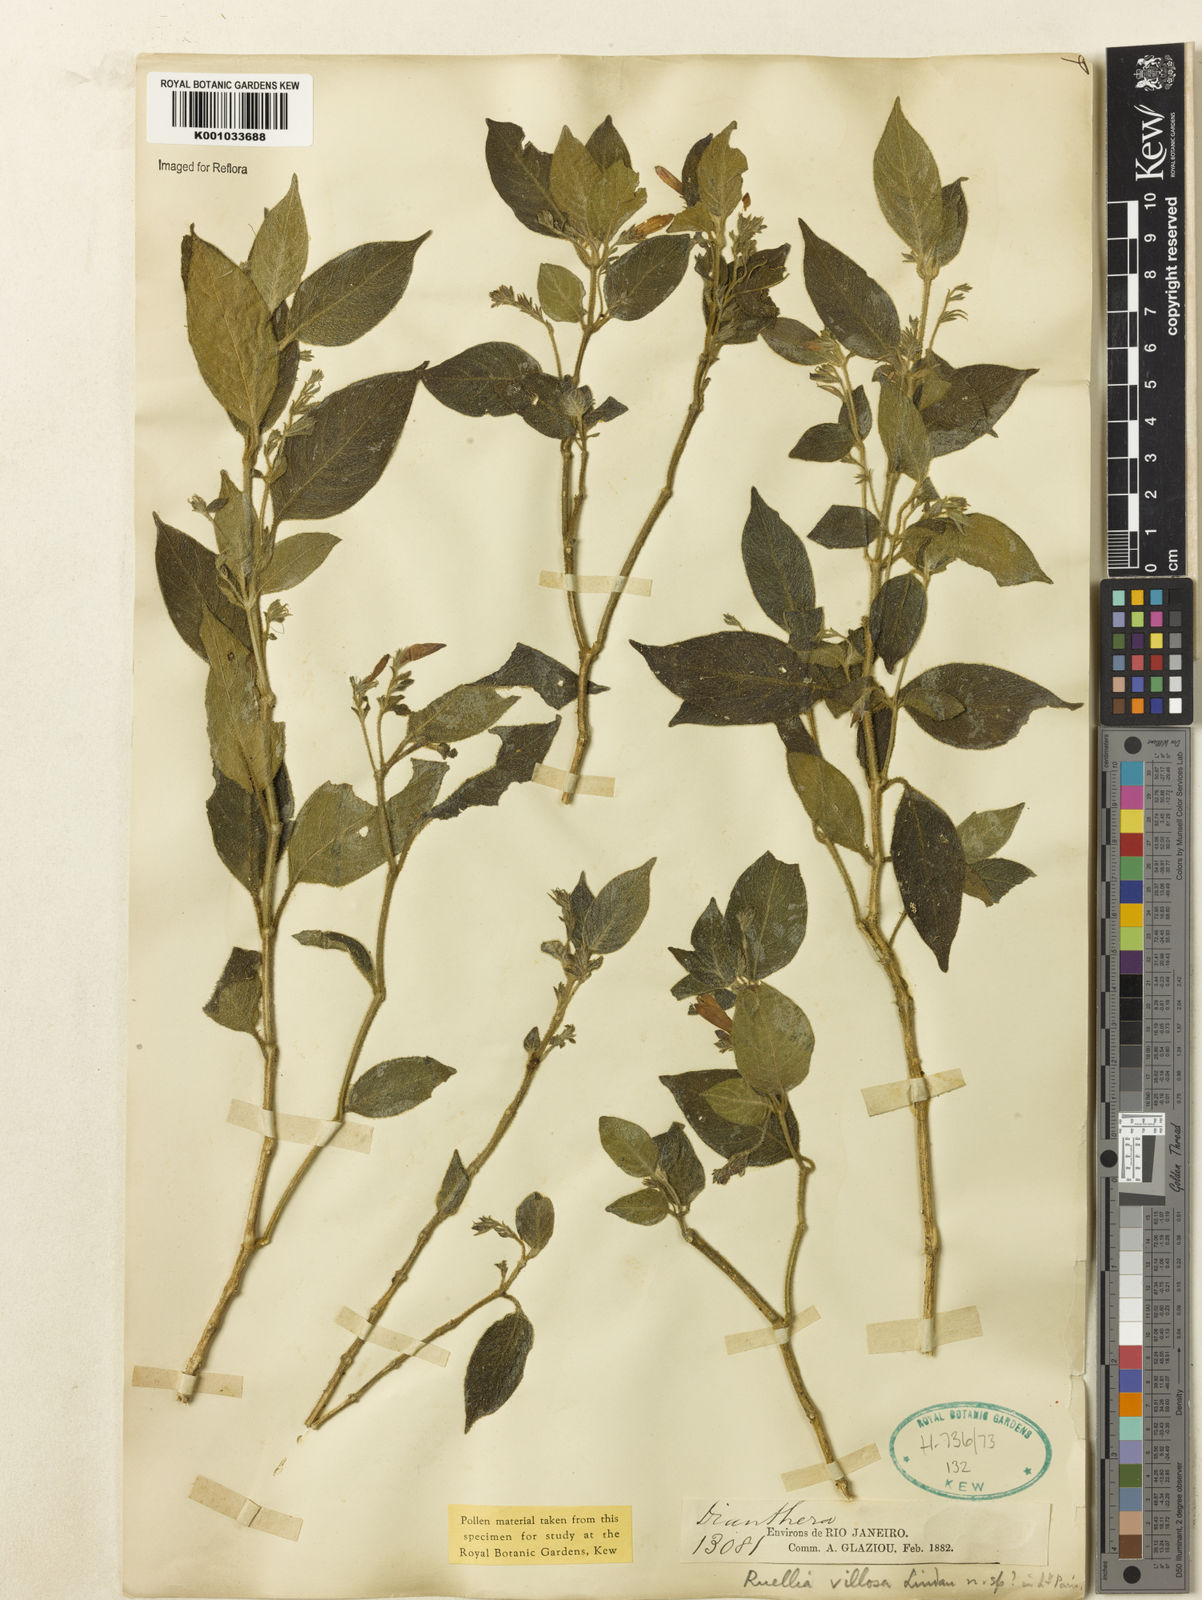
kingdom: Plantae
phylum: Tracheophyta
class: Magnoliopsida
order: Lamiales
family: Acanthaceae
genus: Justicia
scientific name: Justicia
